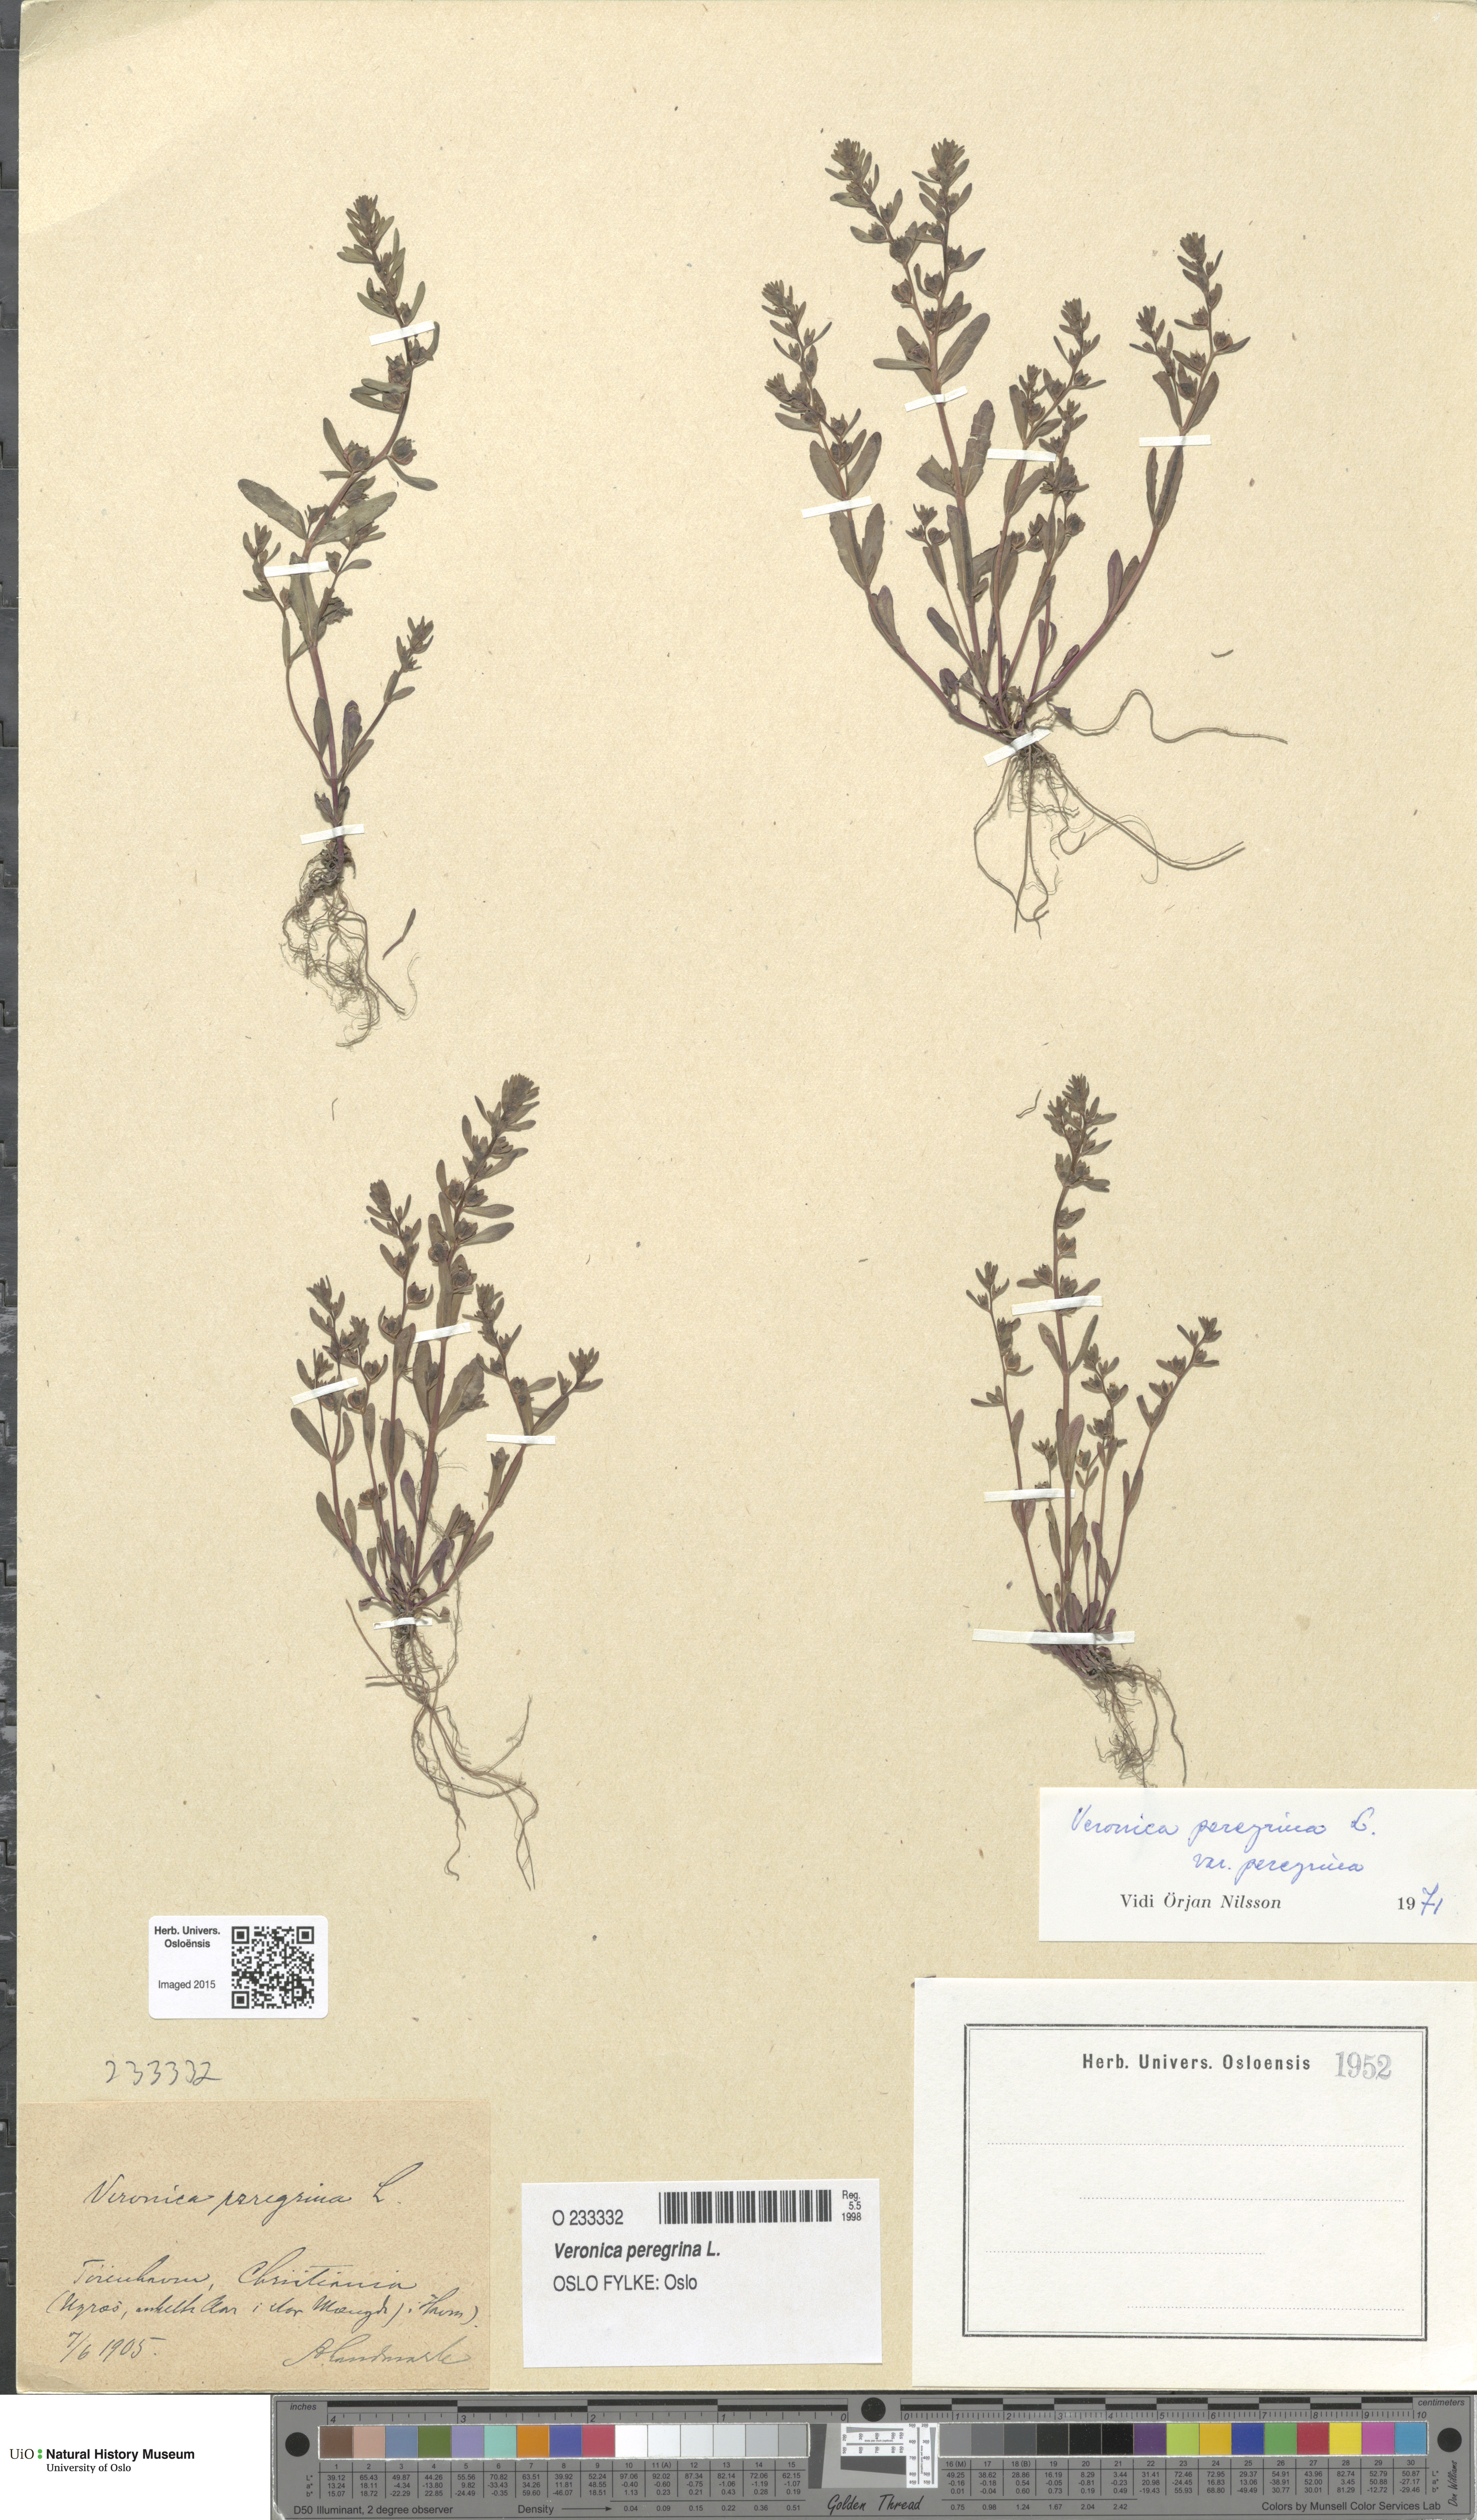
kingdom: Plantae
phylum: Tracheophyta
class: Magnoliopsida
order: Lamiales
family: Plantaginaceae
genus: Veronica
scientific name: Veronica peregrina
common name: Neckweed
